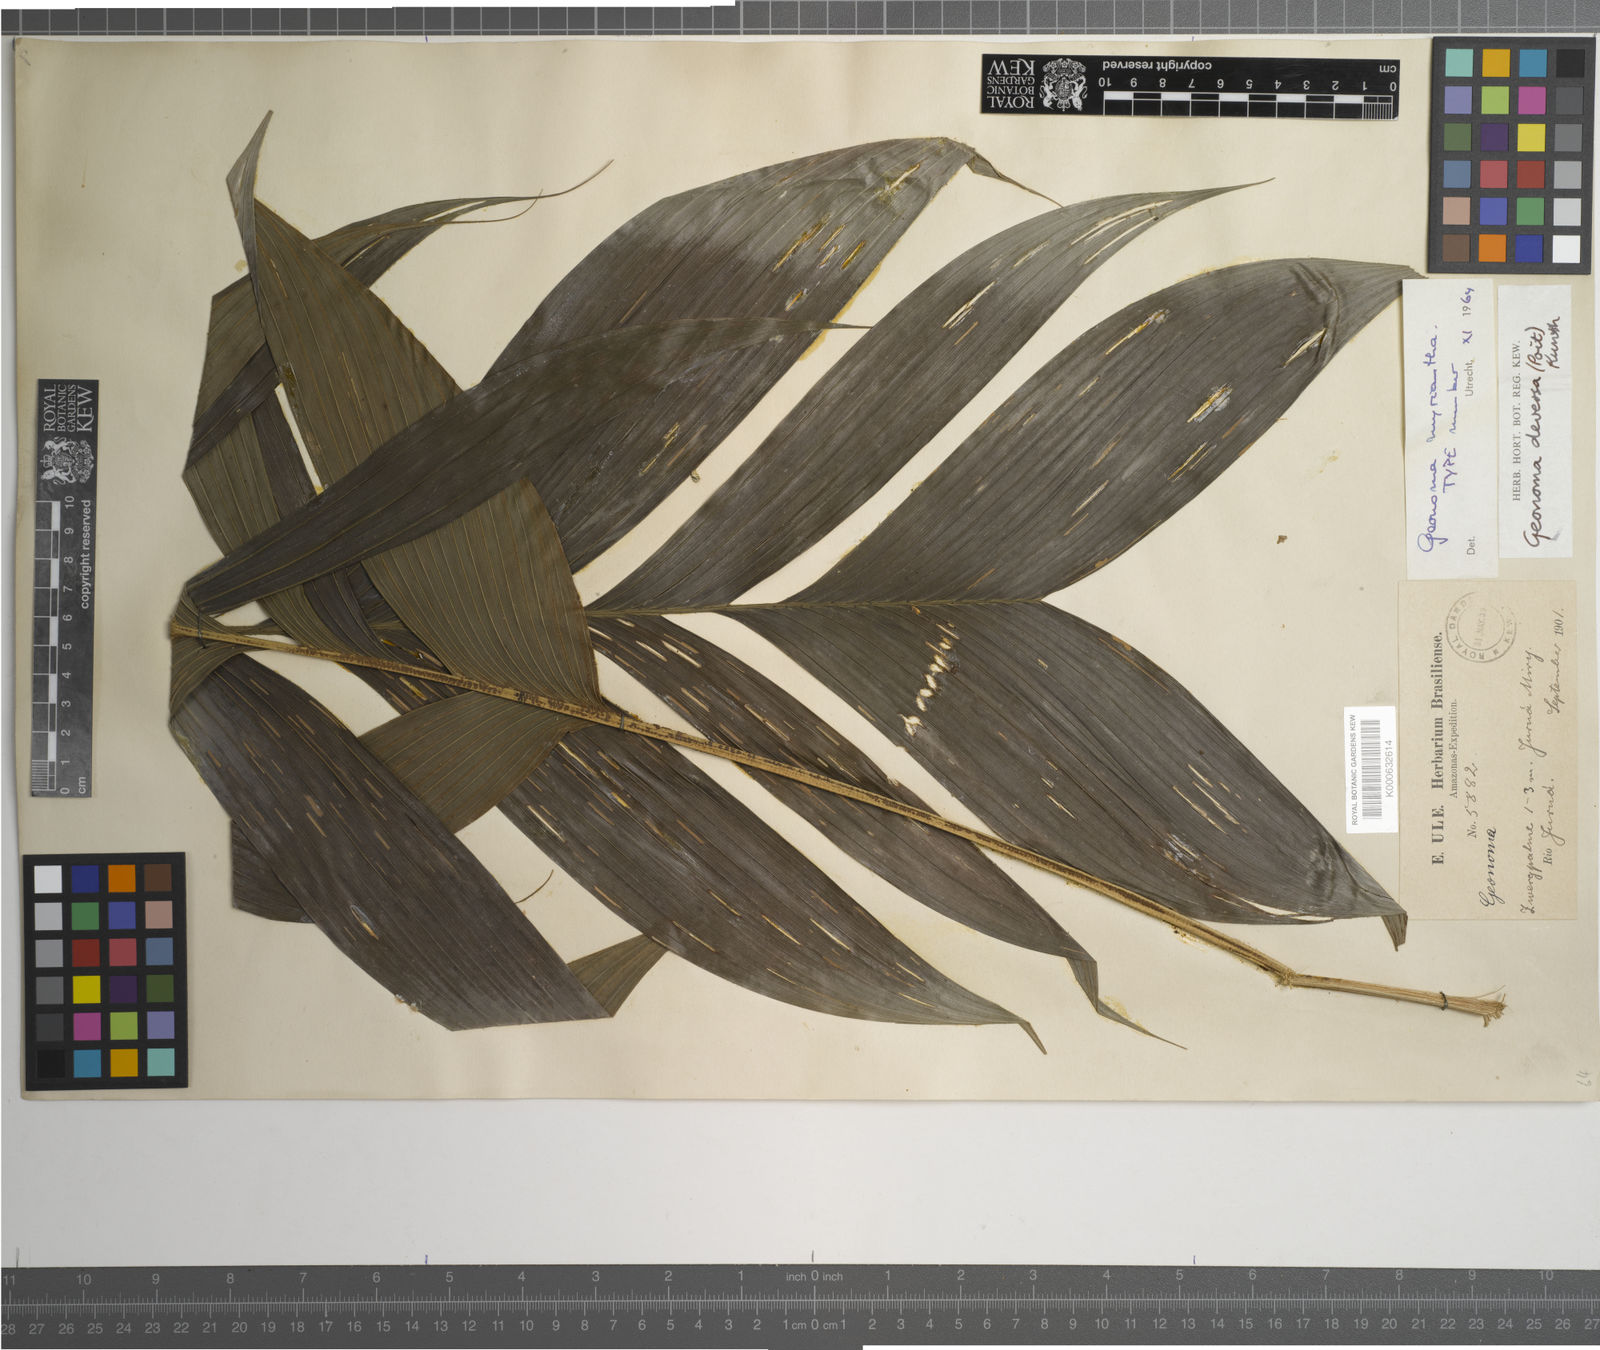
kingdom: Plantae
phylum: Tracheophyta
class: Liliopsida
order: Arecales
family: Arecaceae
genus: Geonoma
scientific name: Geonoma deversa
